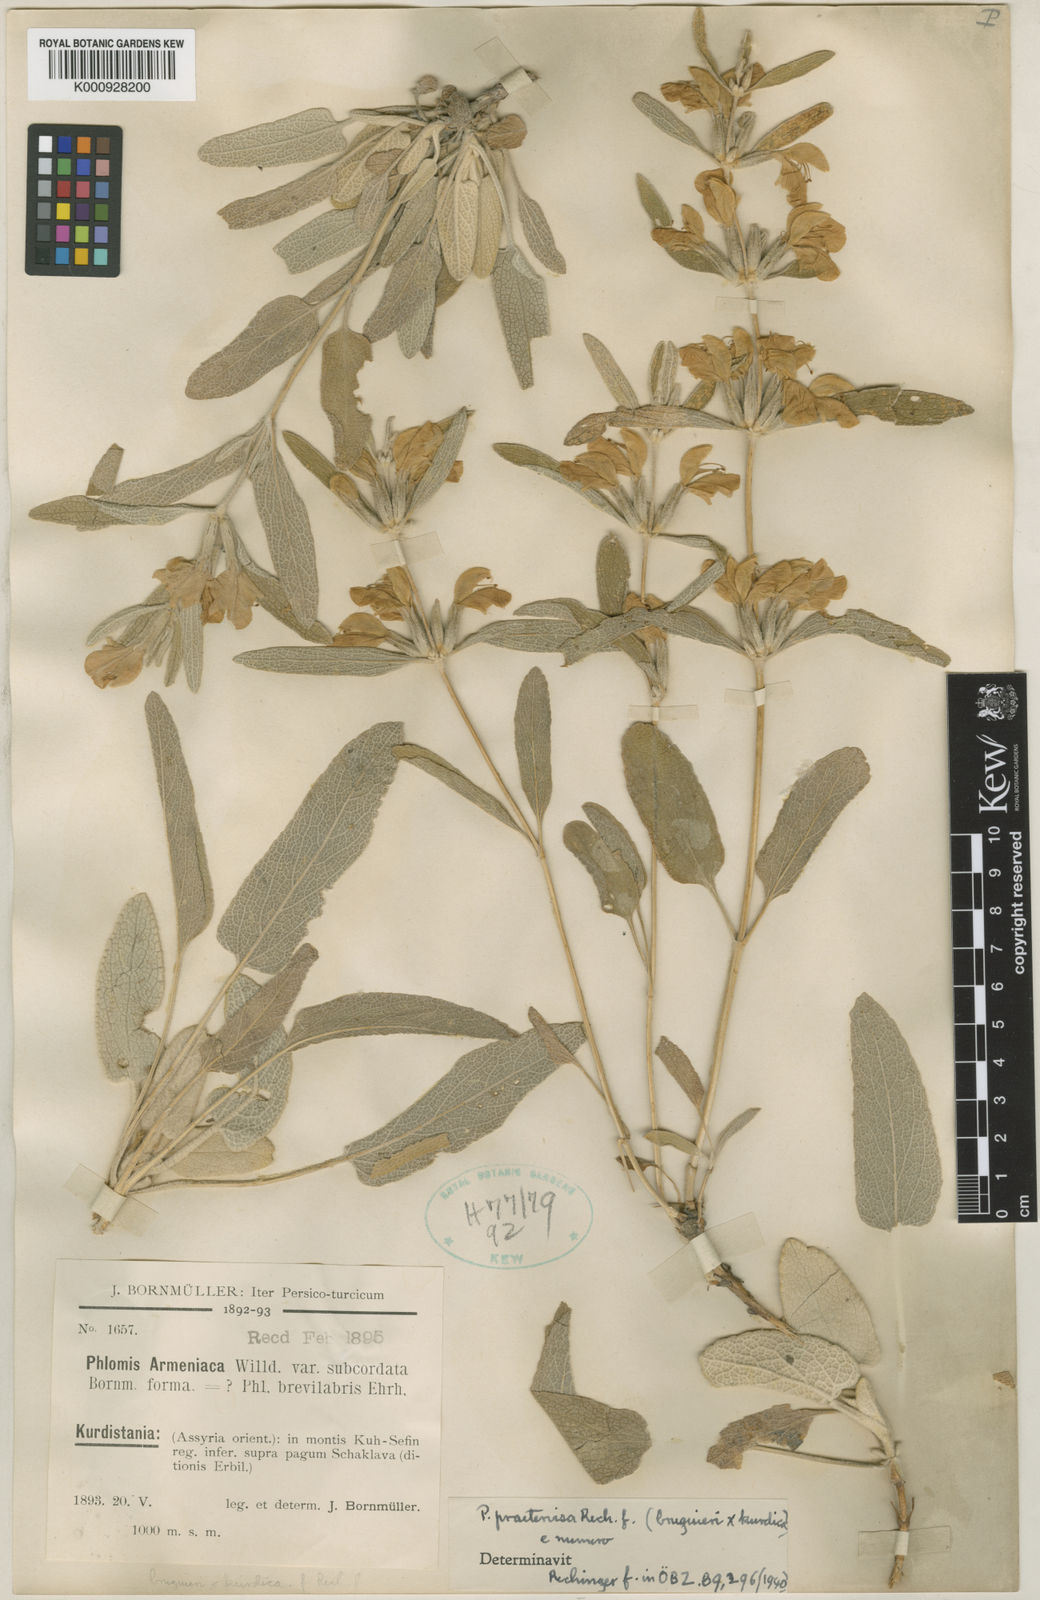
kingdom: Plantae
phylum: Tracheophyta
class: Magnoliopsida
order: Lamiales
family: Lamiaceae
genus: Phlomis
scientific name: Phlomis praetervisa
